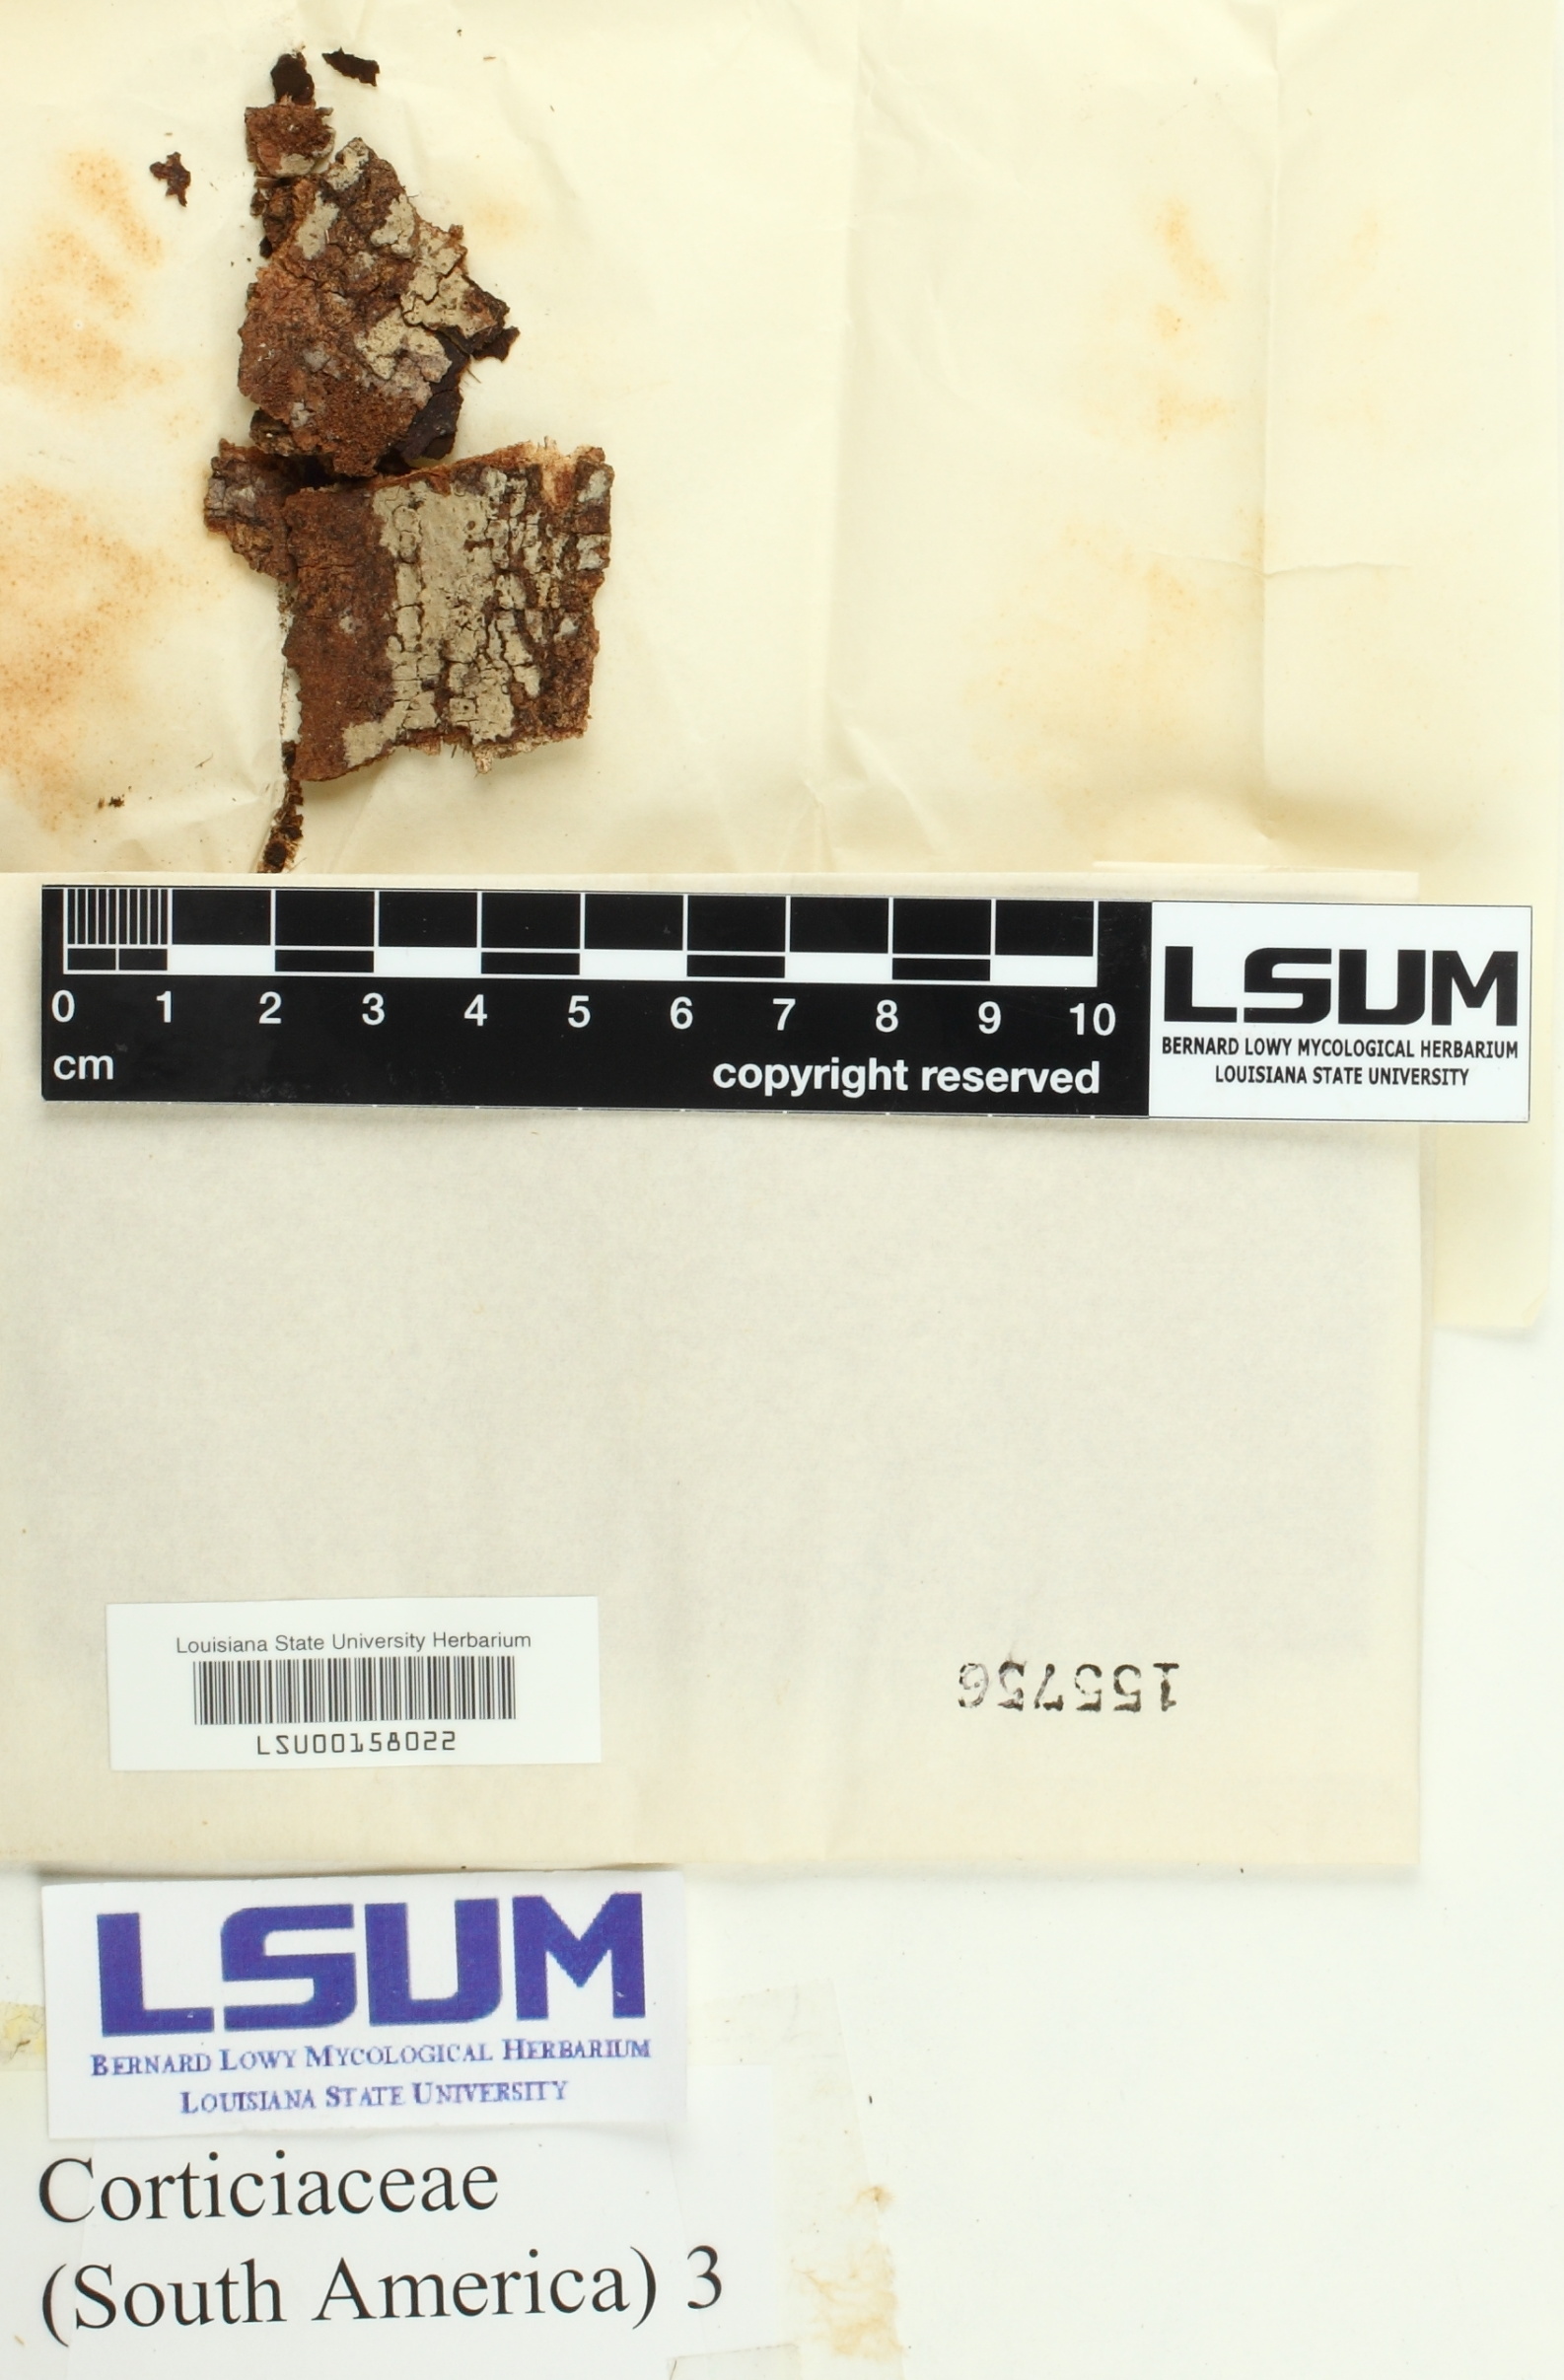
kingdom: Fungi
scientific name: Fungi
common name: Fungi
